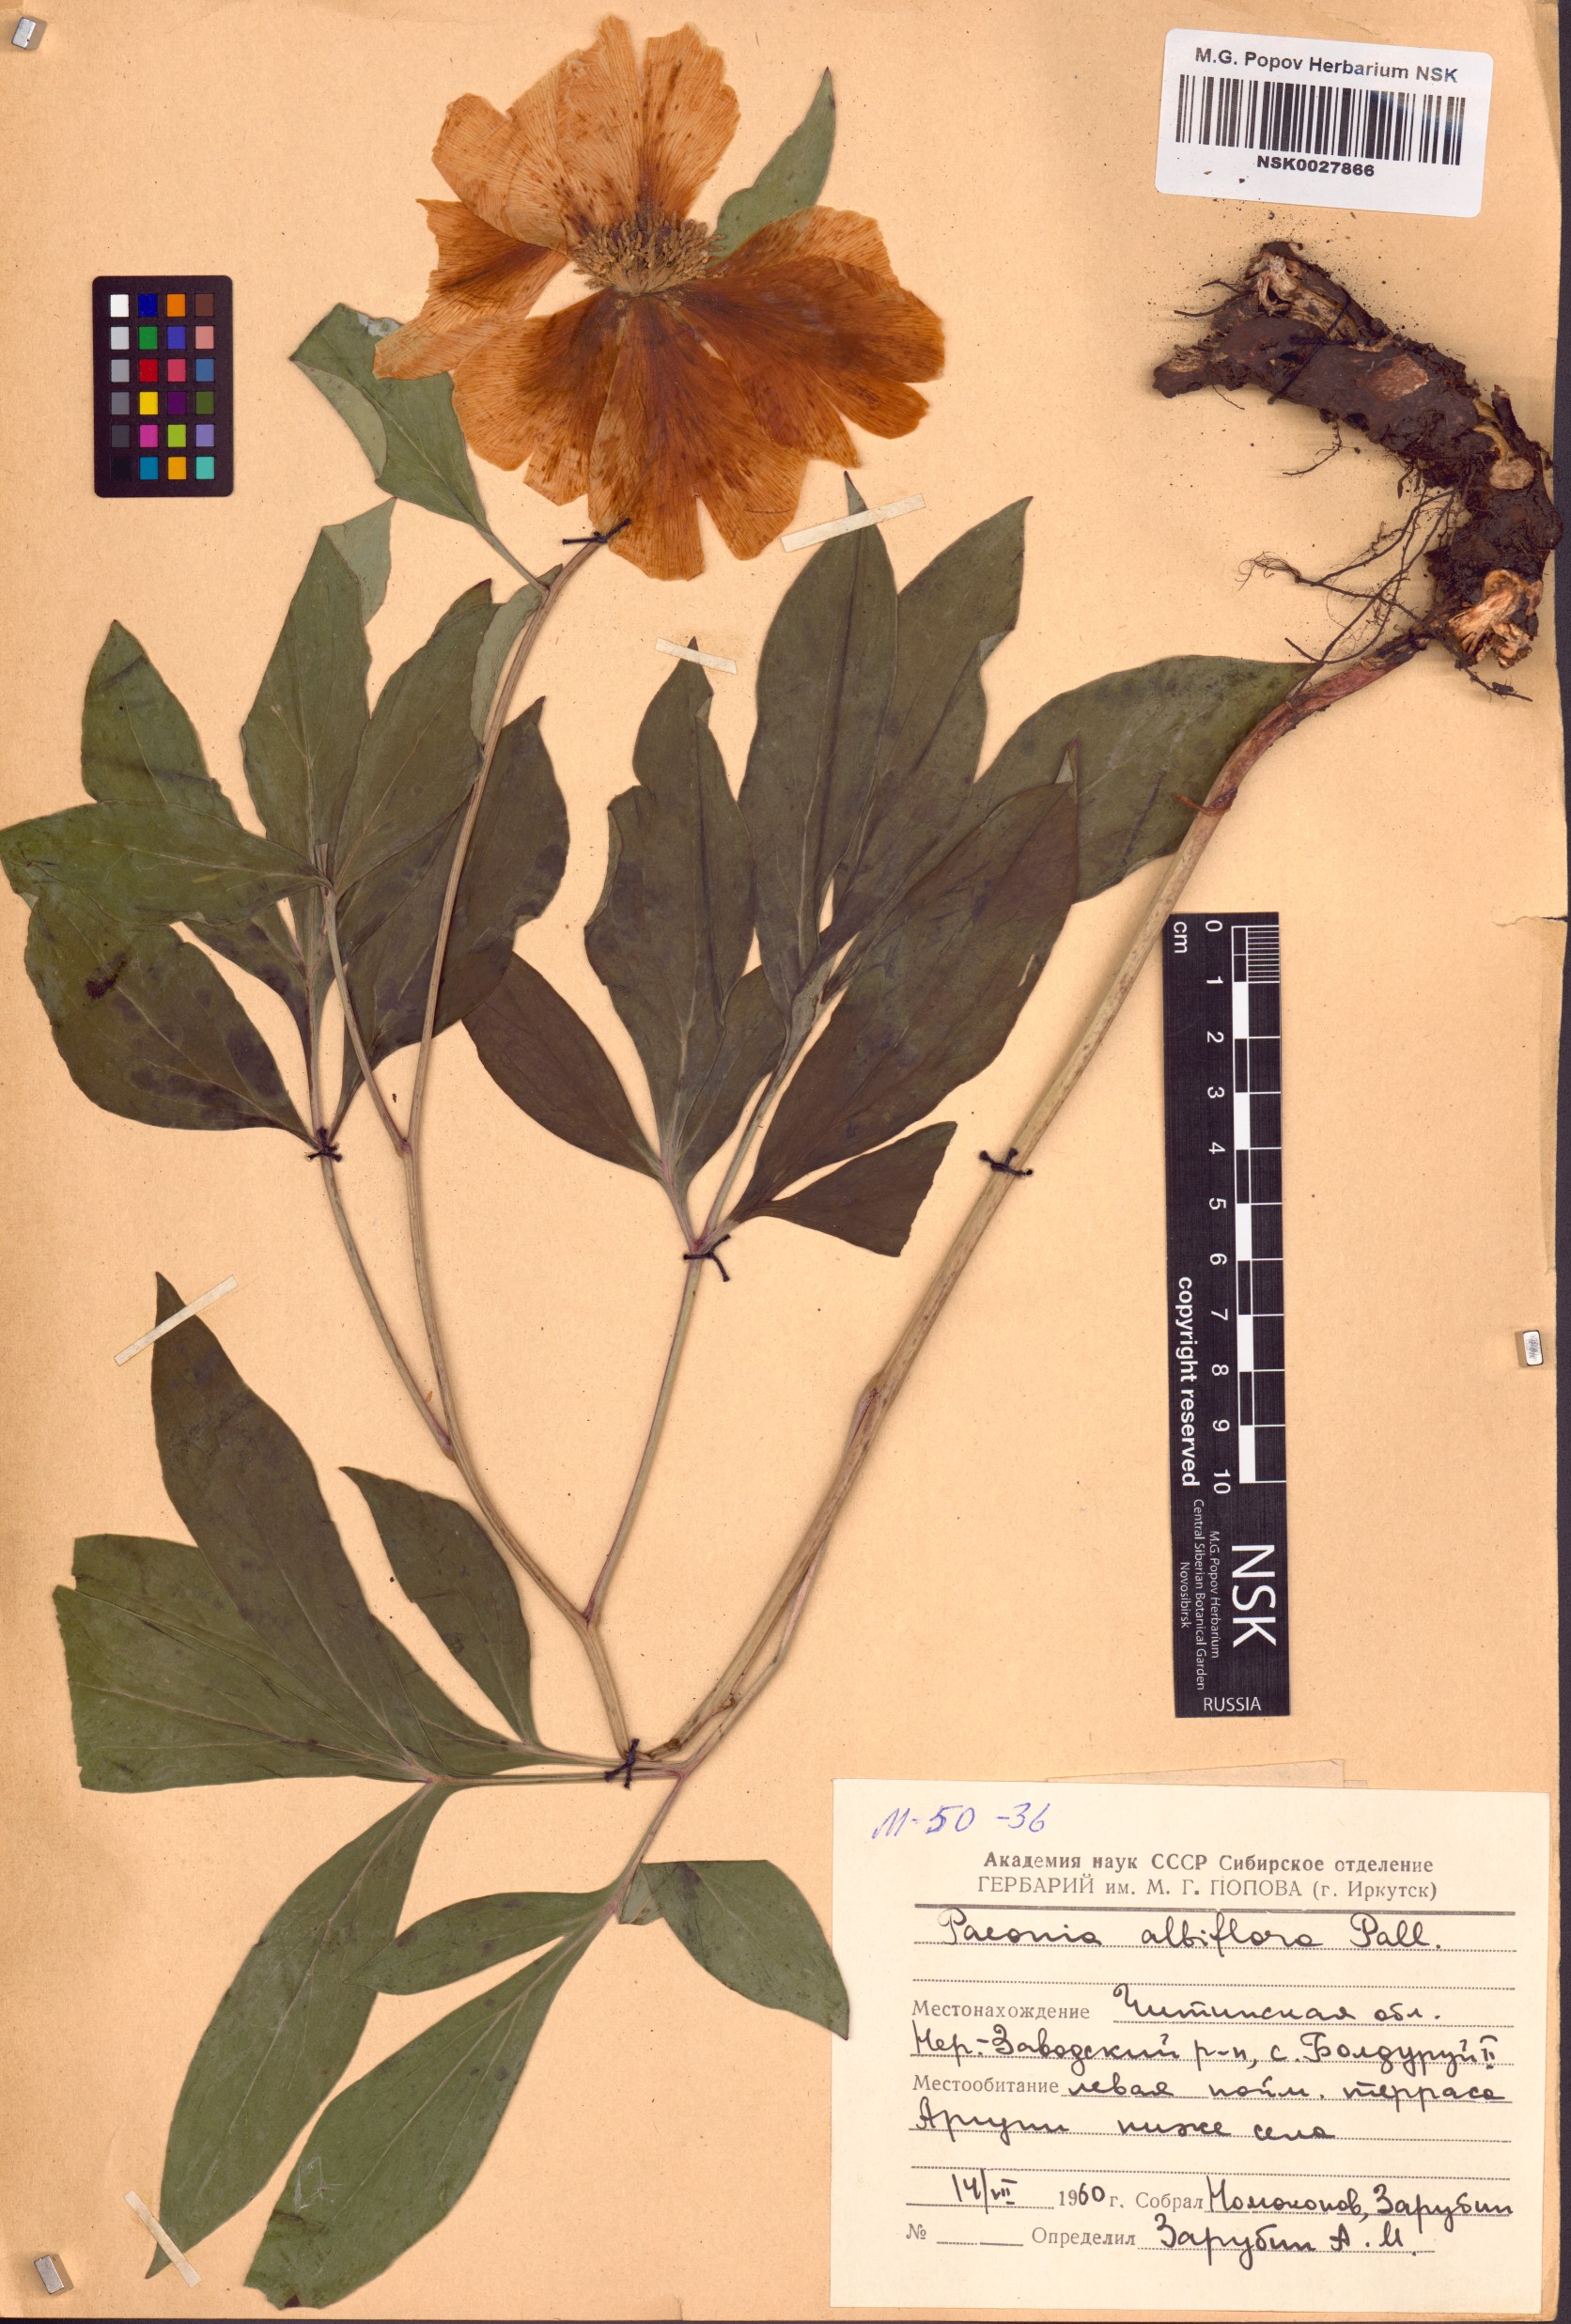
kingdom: Plantae
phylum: Tracheophyta
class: Magnoliopsida
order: Saxifragales
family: Paeoniaceae
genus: Paeonia
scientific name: Paeonia lactiflora
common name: Chinese peony
